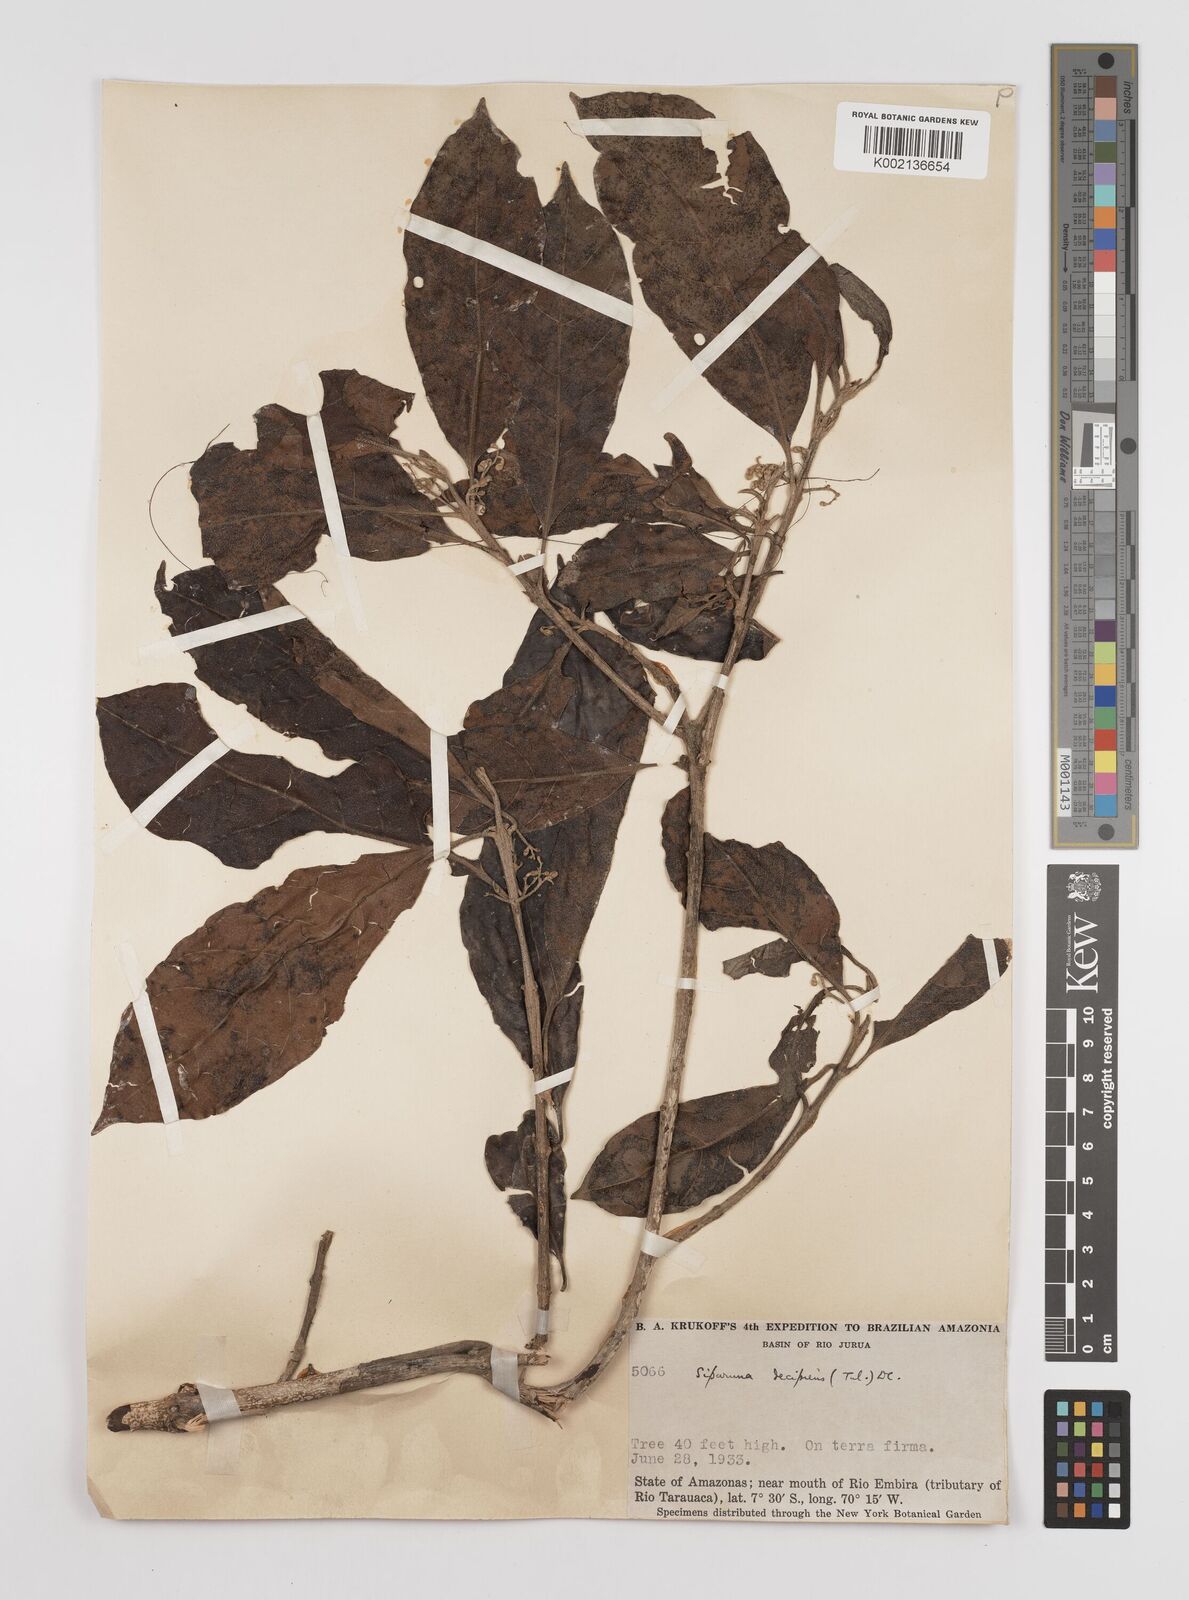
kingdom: Plantae
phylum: Tracheophyta
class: Magnoliopsida
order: Laurales
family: Siparunaceae
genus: Siparuna
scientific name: Siparuna decipiens
